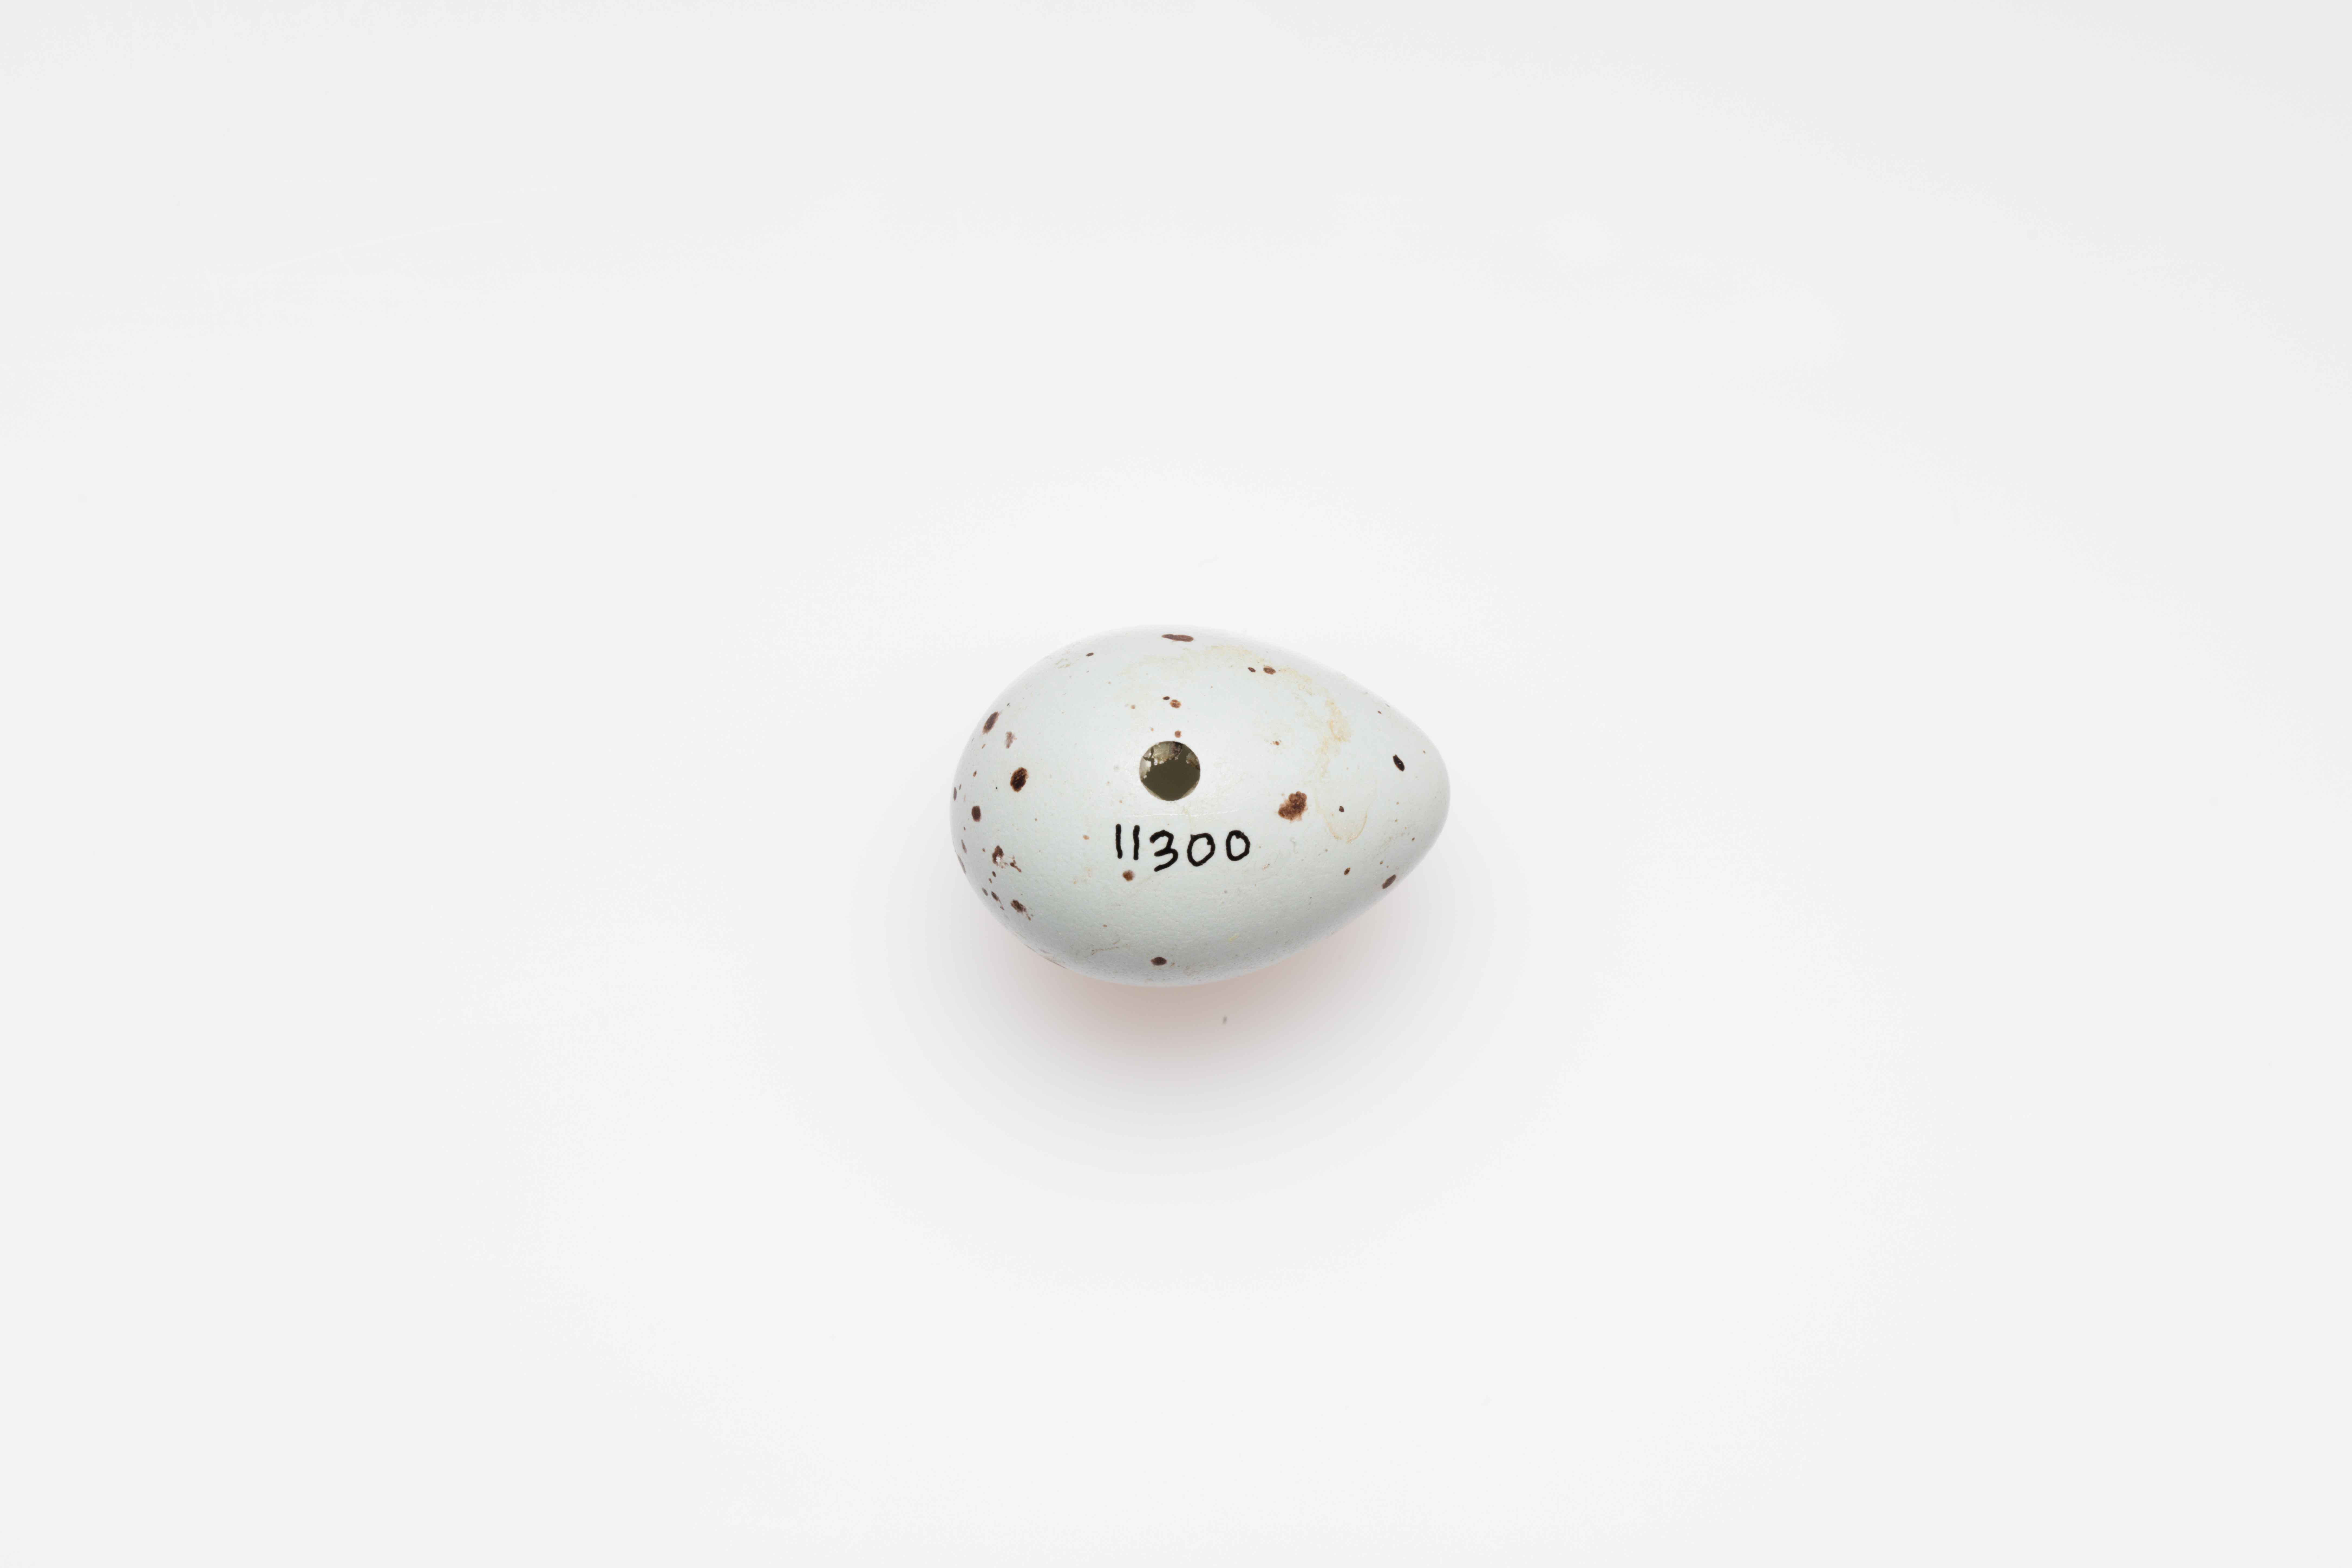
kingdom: Animalia
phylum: Chordata
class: Aves
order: Passeriformes
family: Turdidae
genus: Turdus
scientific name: Turdus philomelos
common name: Song thrush
